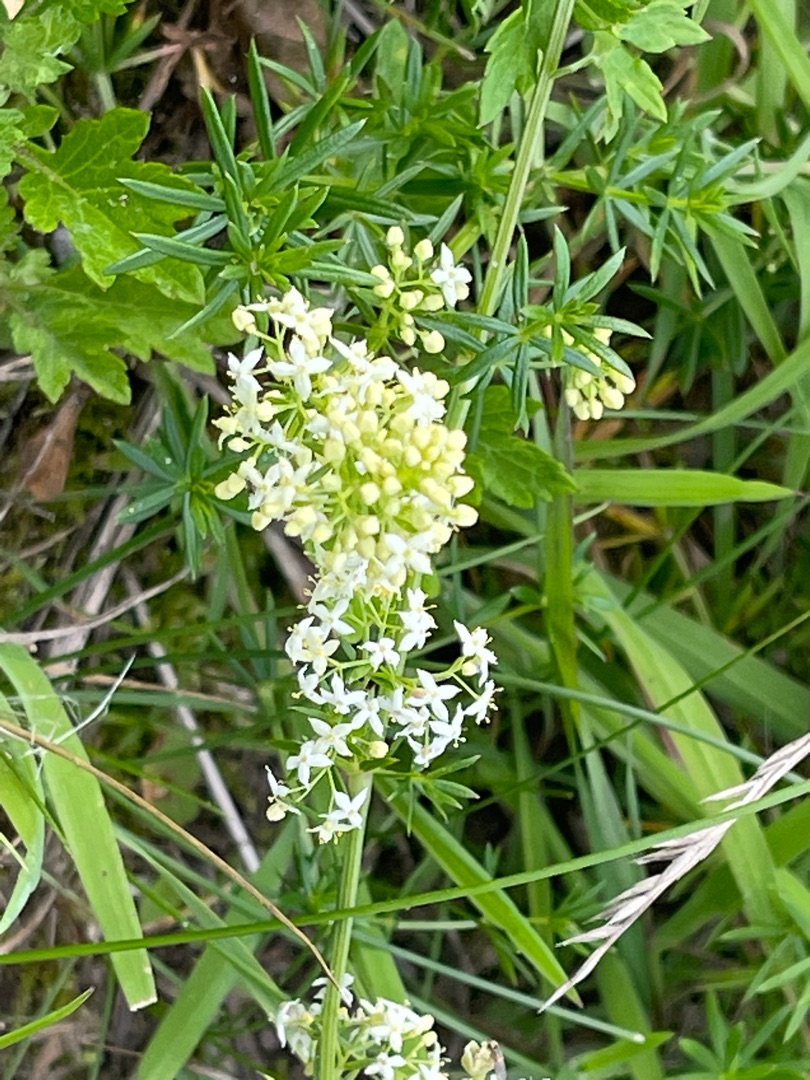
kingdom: Plantae
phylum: Tracheophyta
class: Magnoliopsida
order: Gentianales
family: Rubiaceae
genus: Galium
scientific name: Galium mollugo
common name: Hvid snerre
